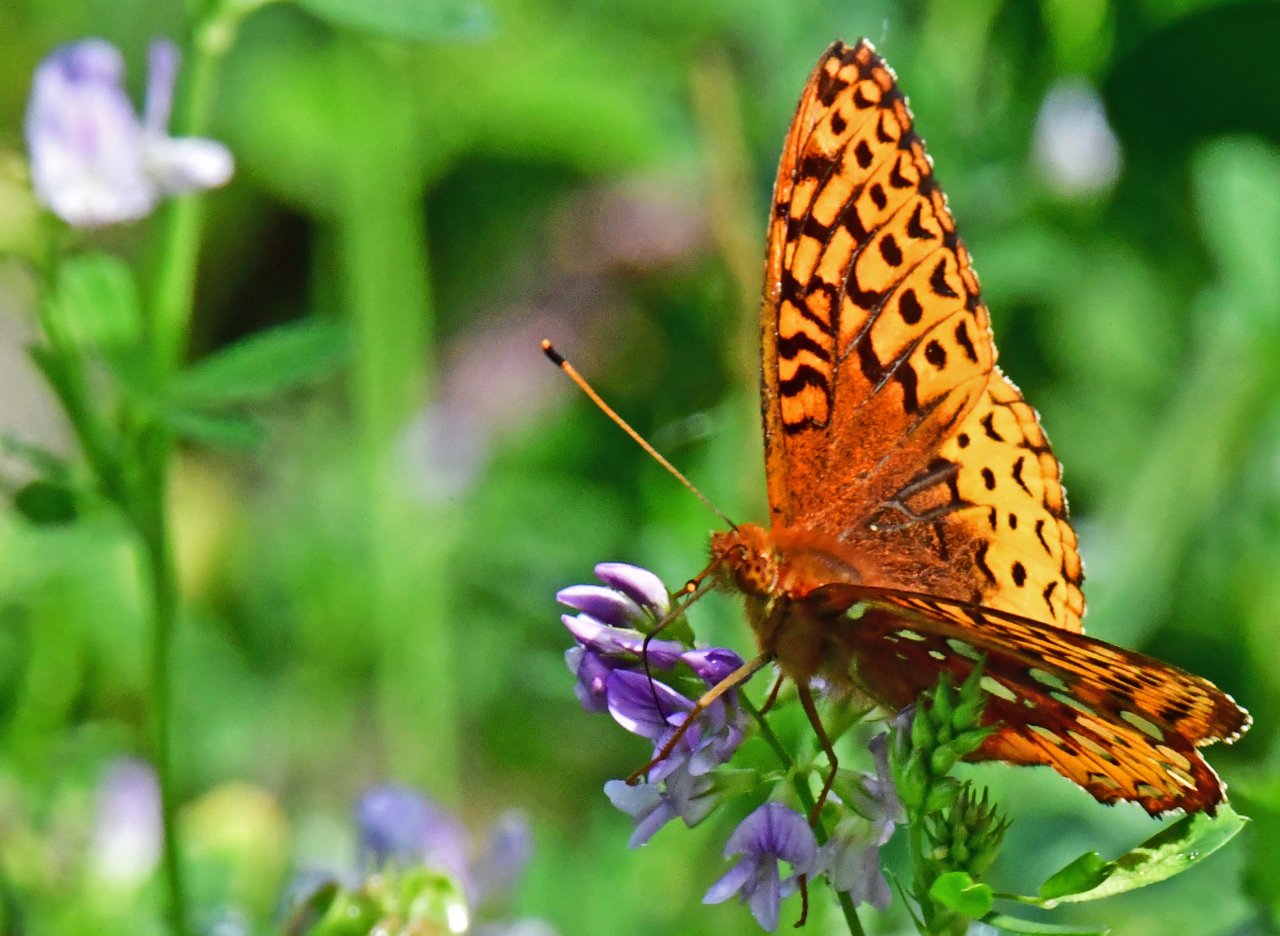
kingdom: Animalia
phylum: Arthropoda
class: Insecta
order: Lepidoptera
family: Nymphalidae
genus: Speyeria
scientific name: Speyeria cybele
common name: Great Spangled Fritillary
